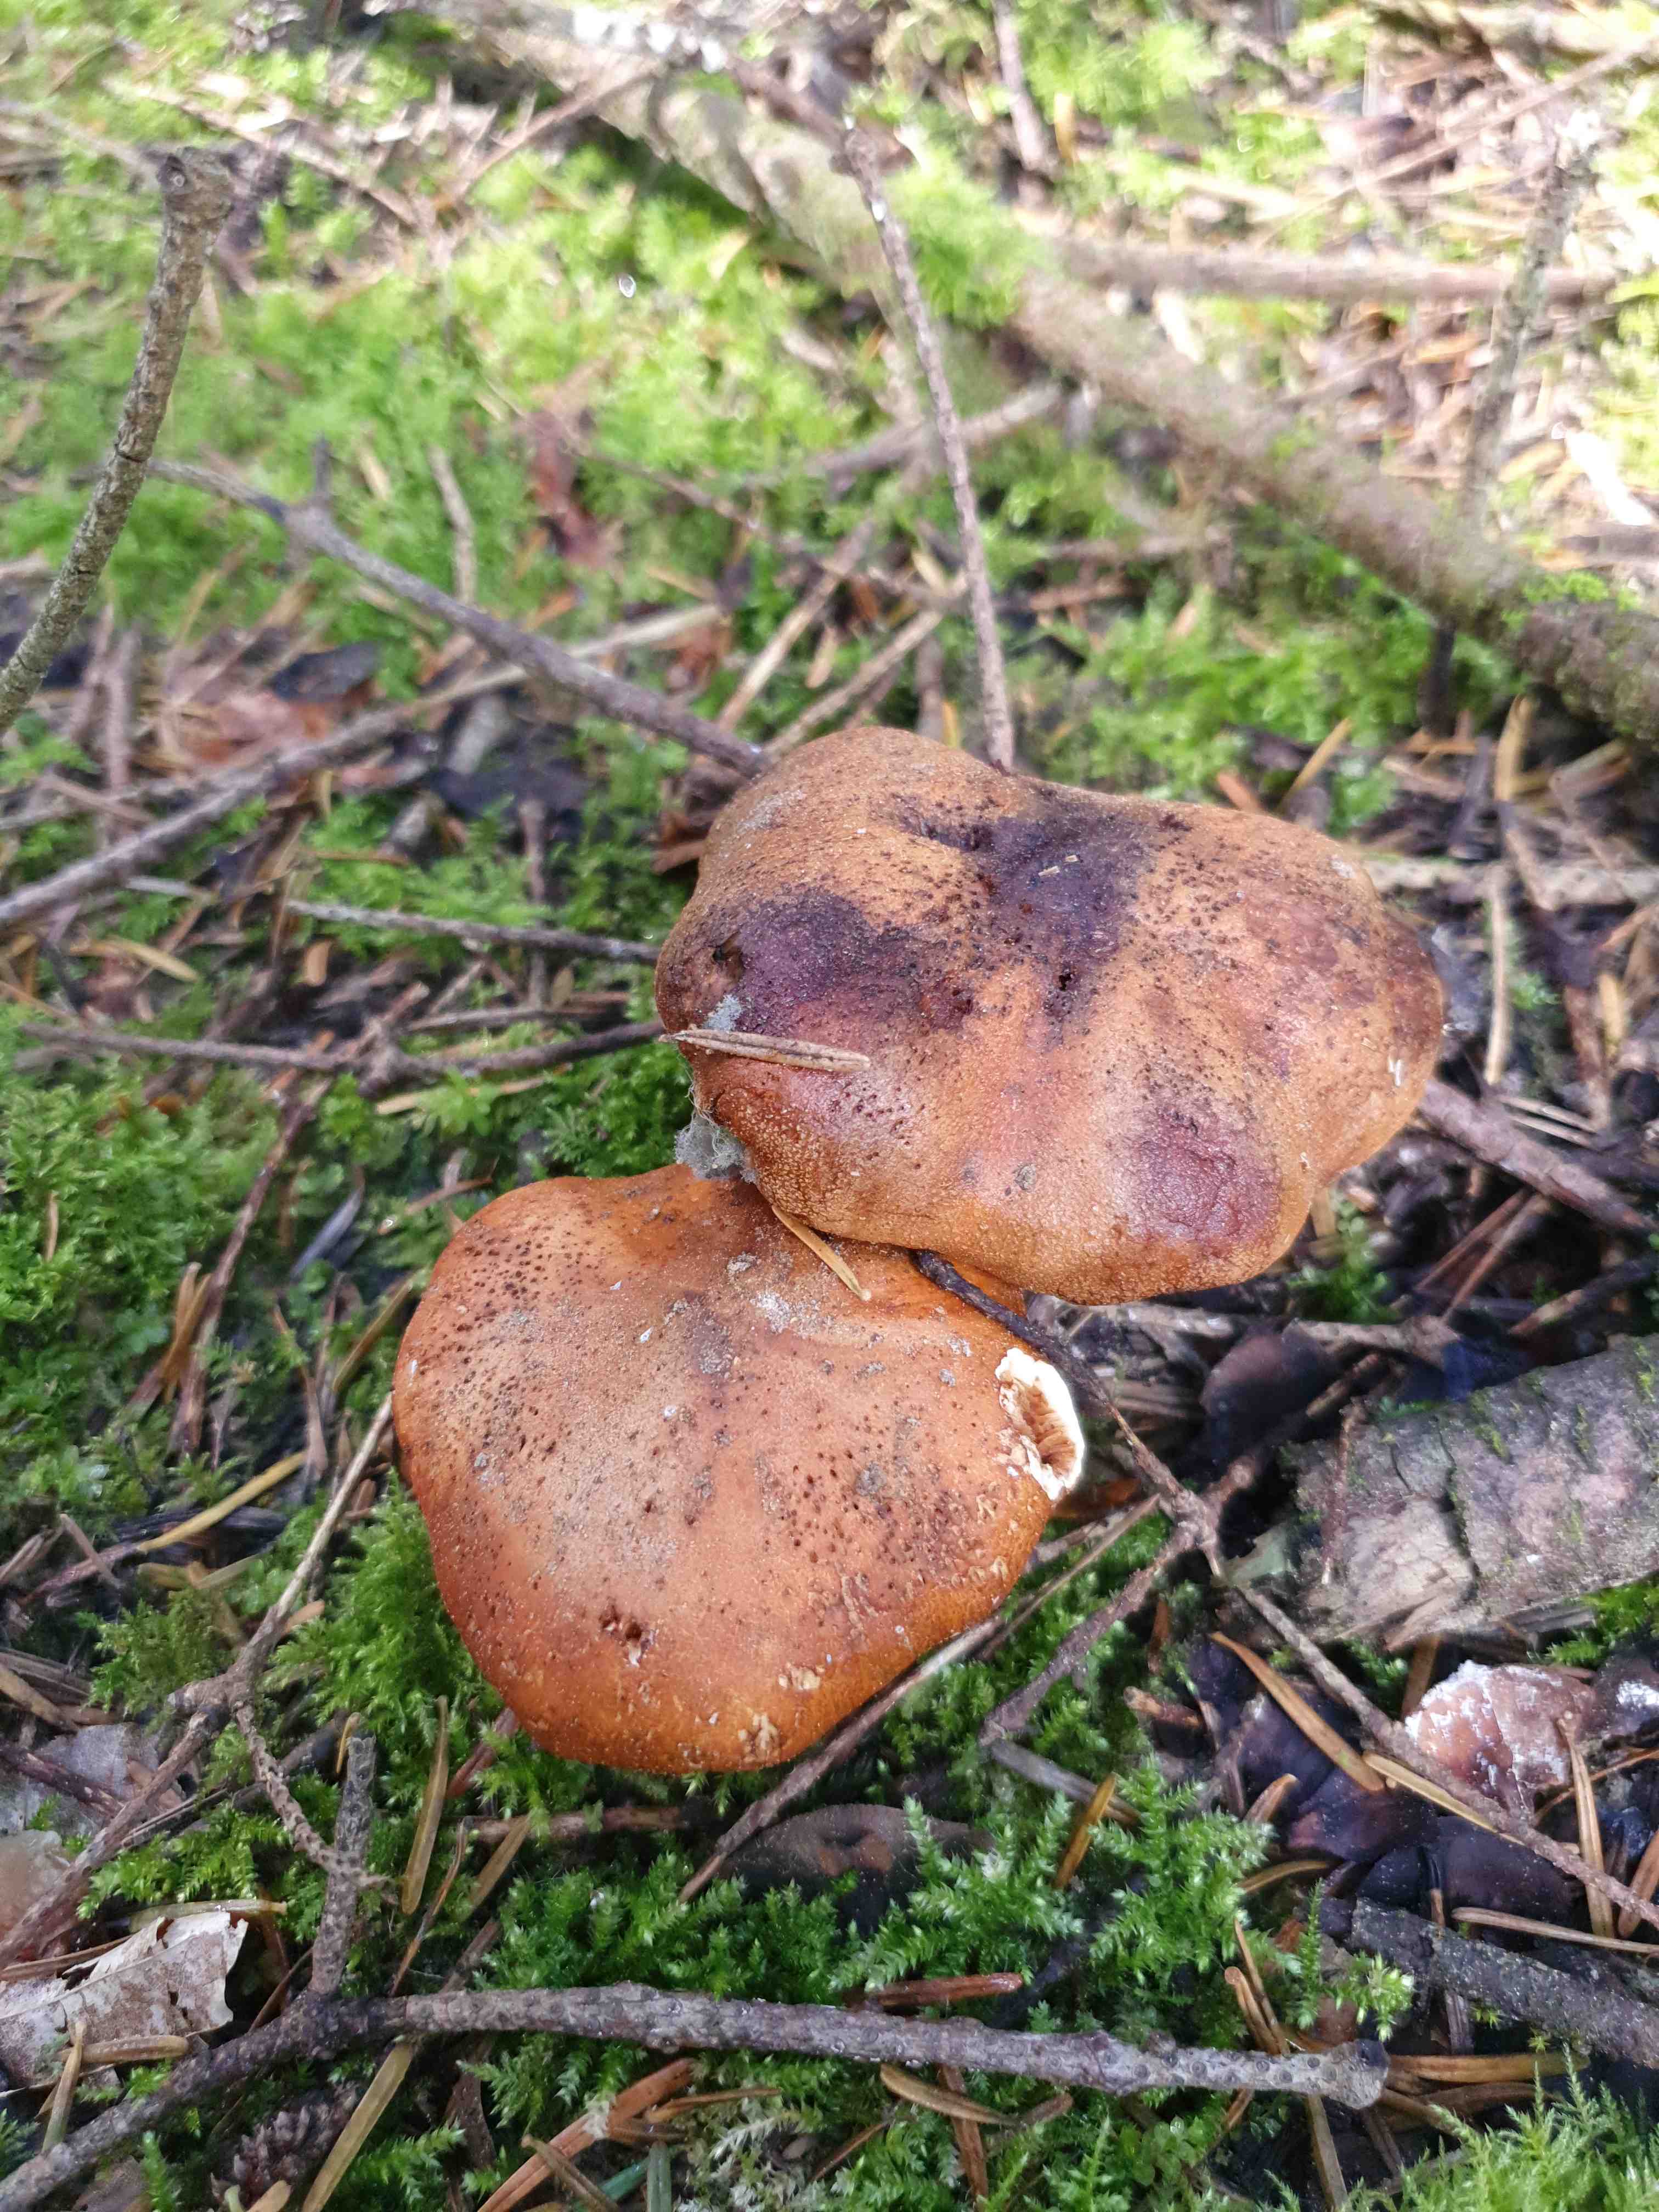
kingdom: Fungi
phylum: Basidiomycota
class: Agaricomycetes
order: Agaricales
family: Tricholomataceae
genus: Tricholoma
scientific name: Tricholoma aurantium
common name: orangegul ridderhat
